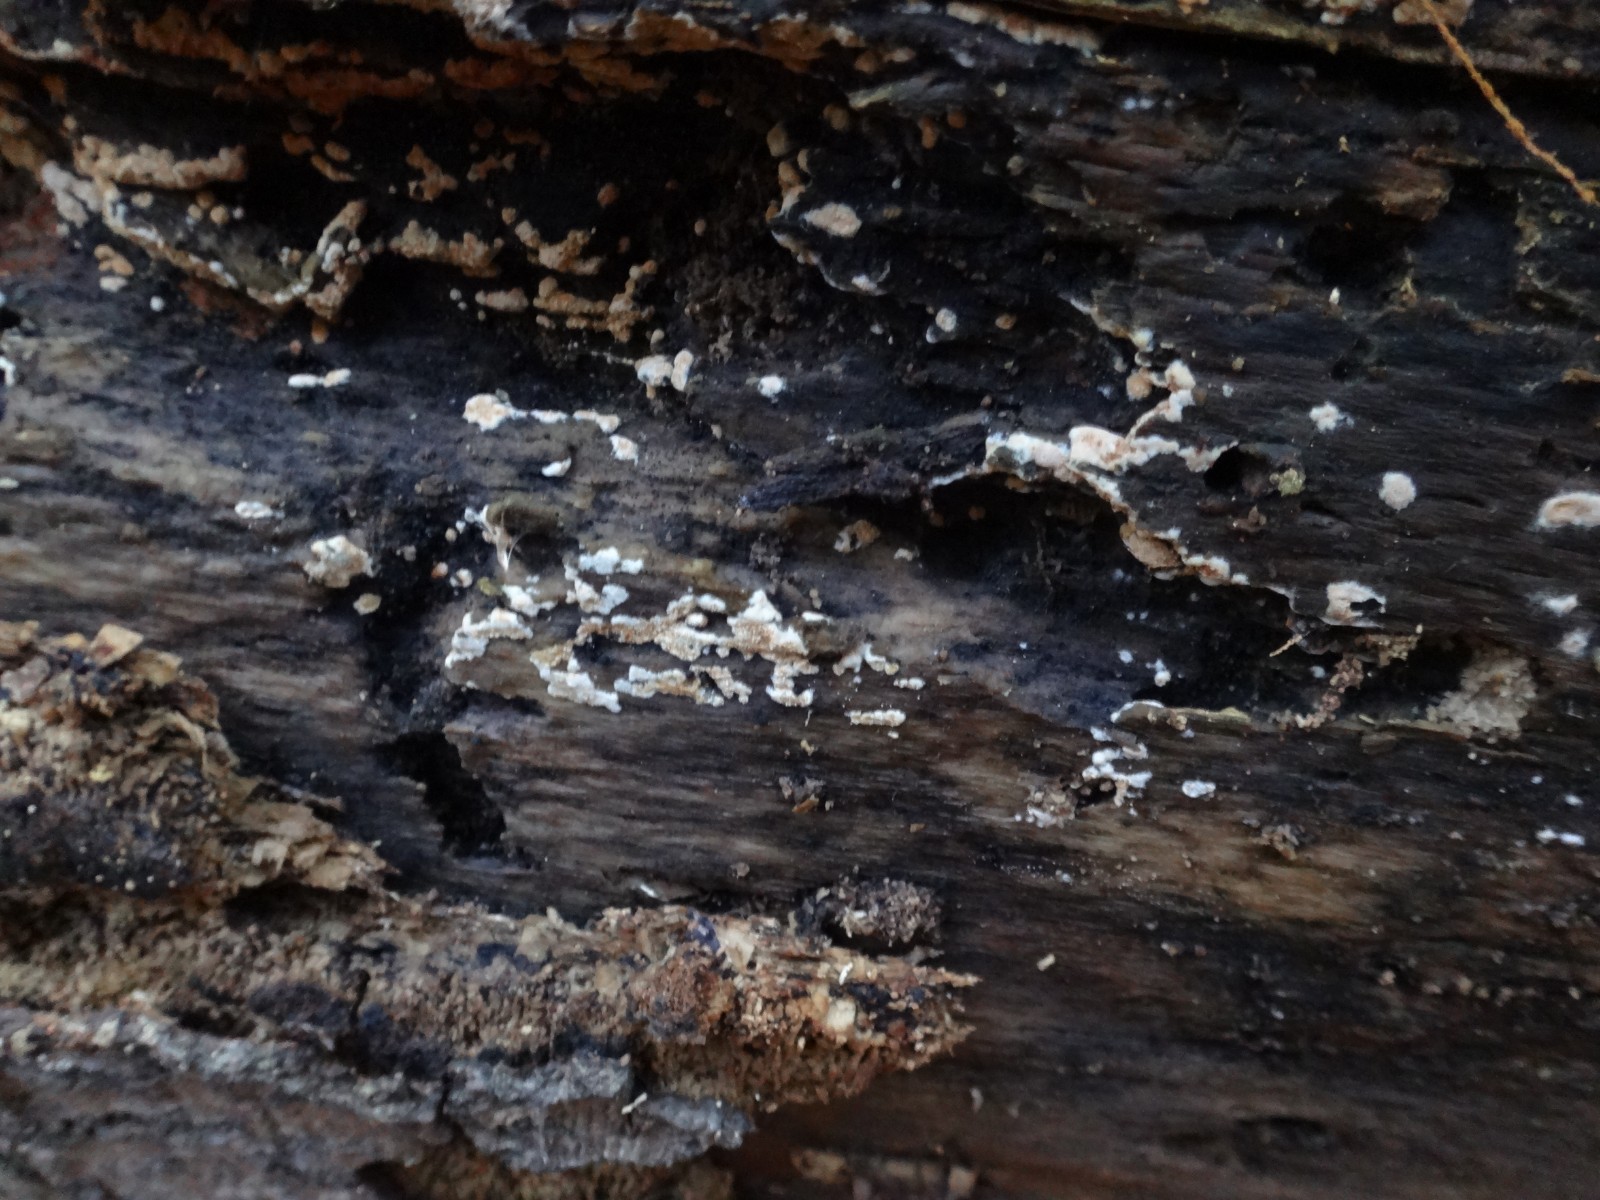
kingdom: Fungi
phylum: Basidiomycota
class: Agaricomycetes
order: Cantharellales
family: Botryobasidiaceae
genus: Botryobasidium
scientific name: Botryobasidium aureum
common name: gylden spindhinde
